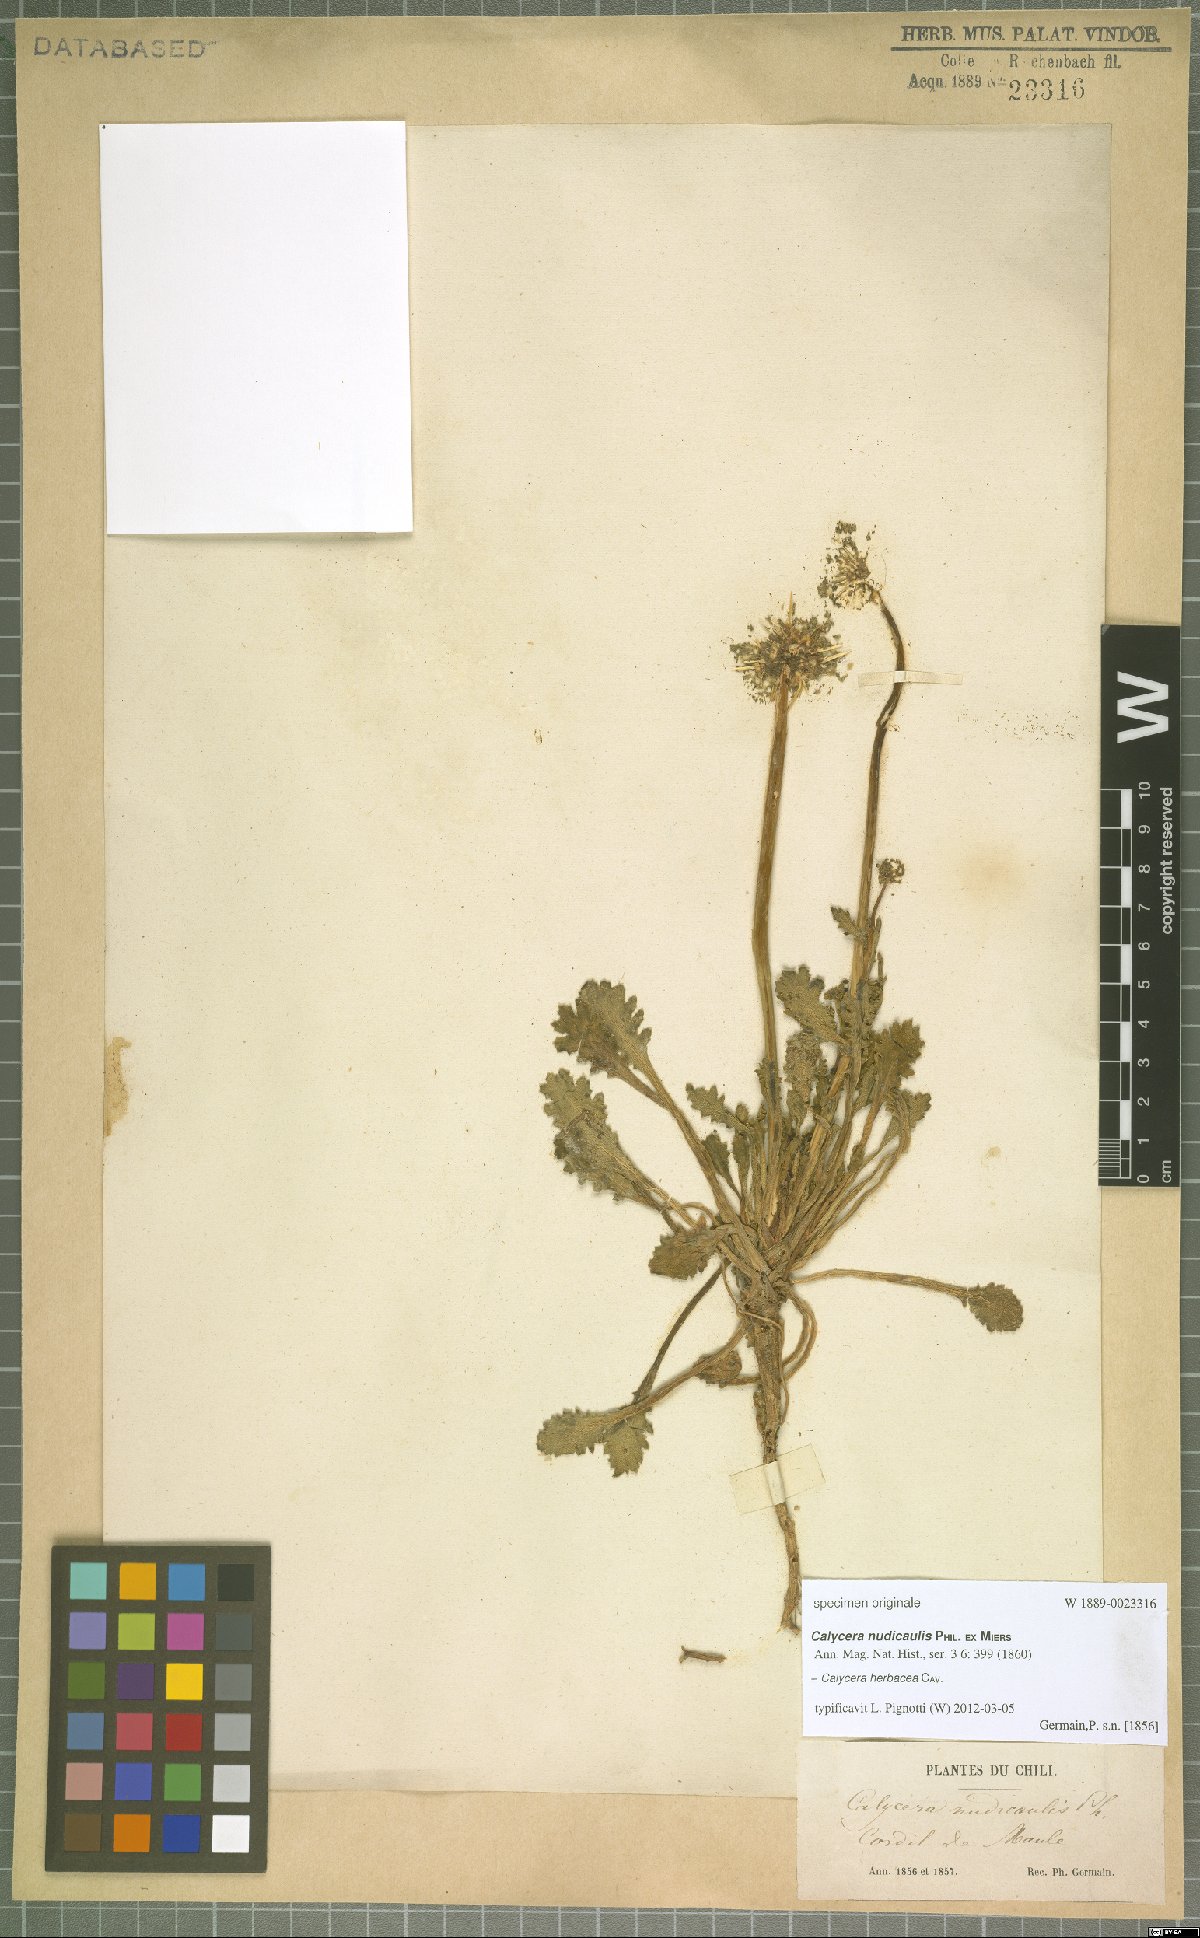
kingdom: Plantae
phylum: Tracheophyta
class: Magnoliopsida
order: Asterales
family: Calyceraceae
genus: Calycera
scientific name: Calycera herbacea
